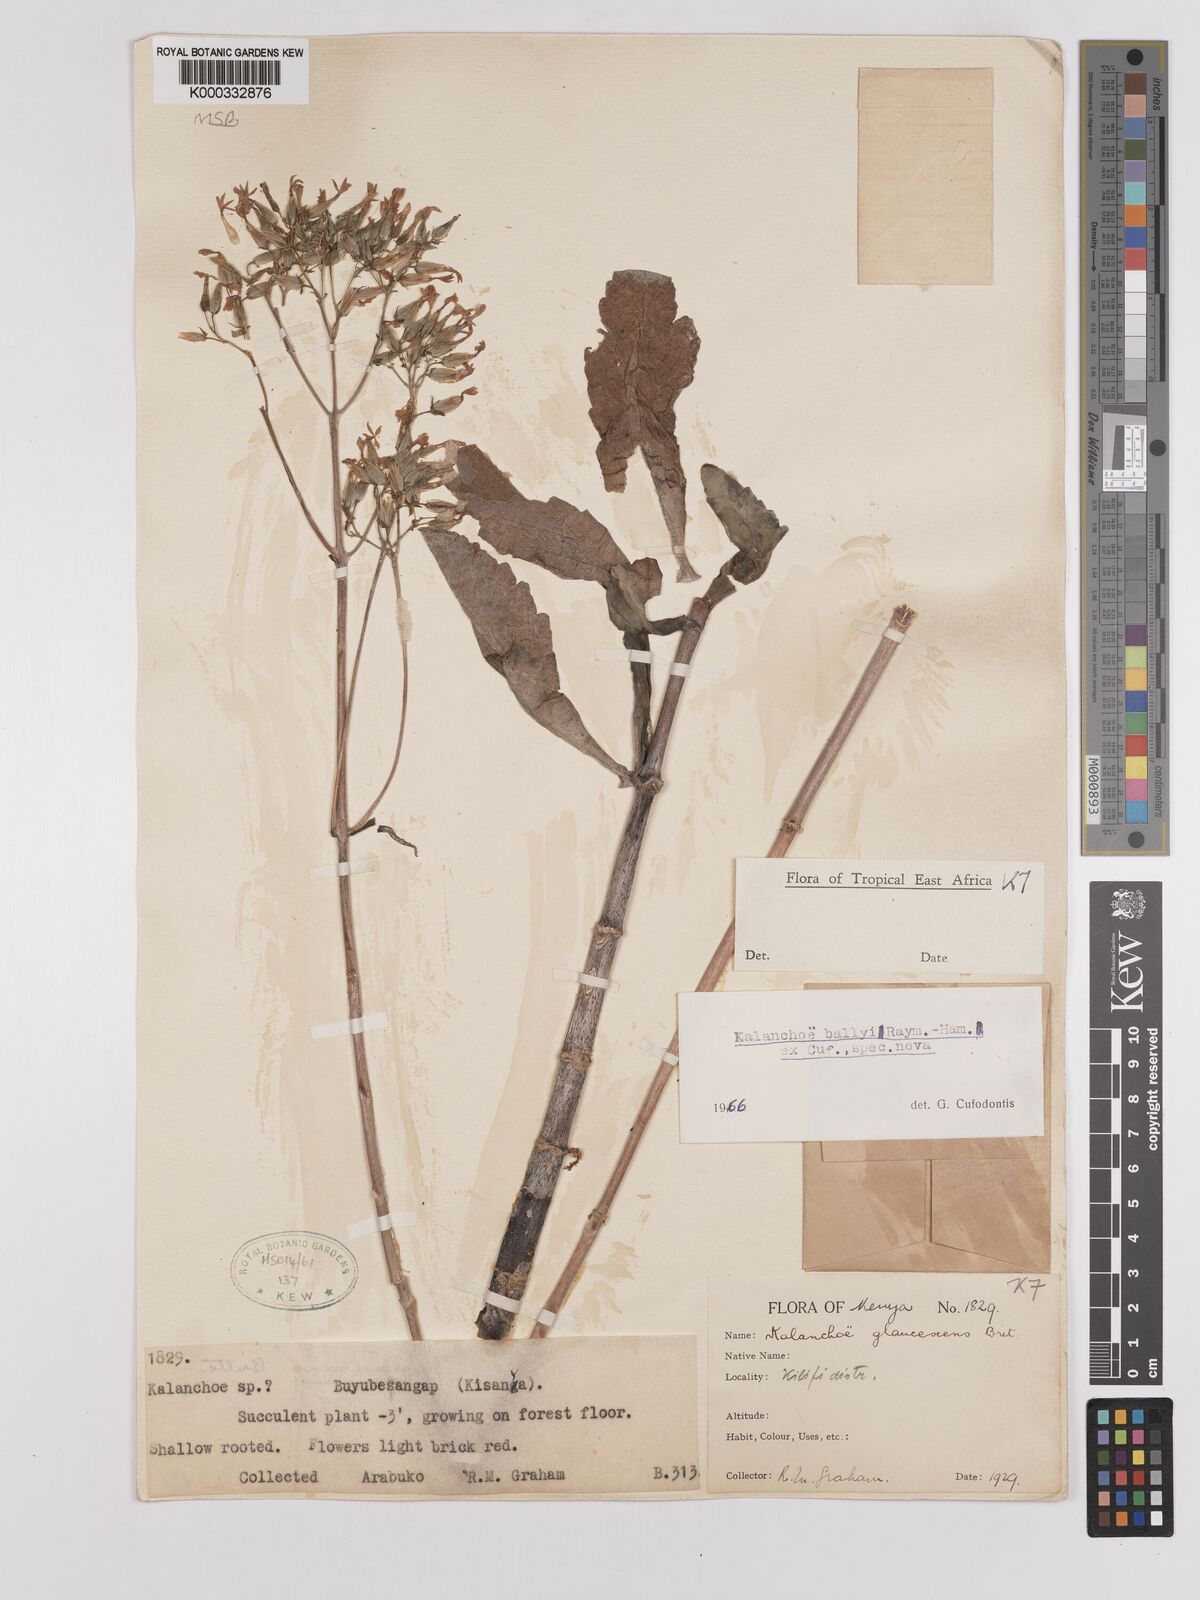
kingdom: Plantae
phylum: Tracheophyta
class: Magnoliopsida
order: Saxifragales
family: Crassulaceae
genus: Kalanchoe
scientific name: Kalanchoe ballyi
